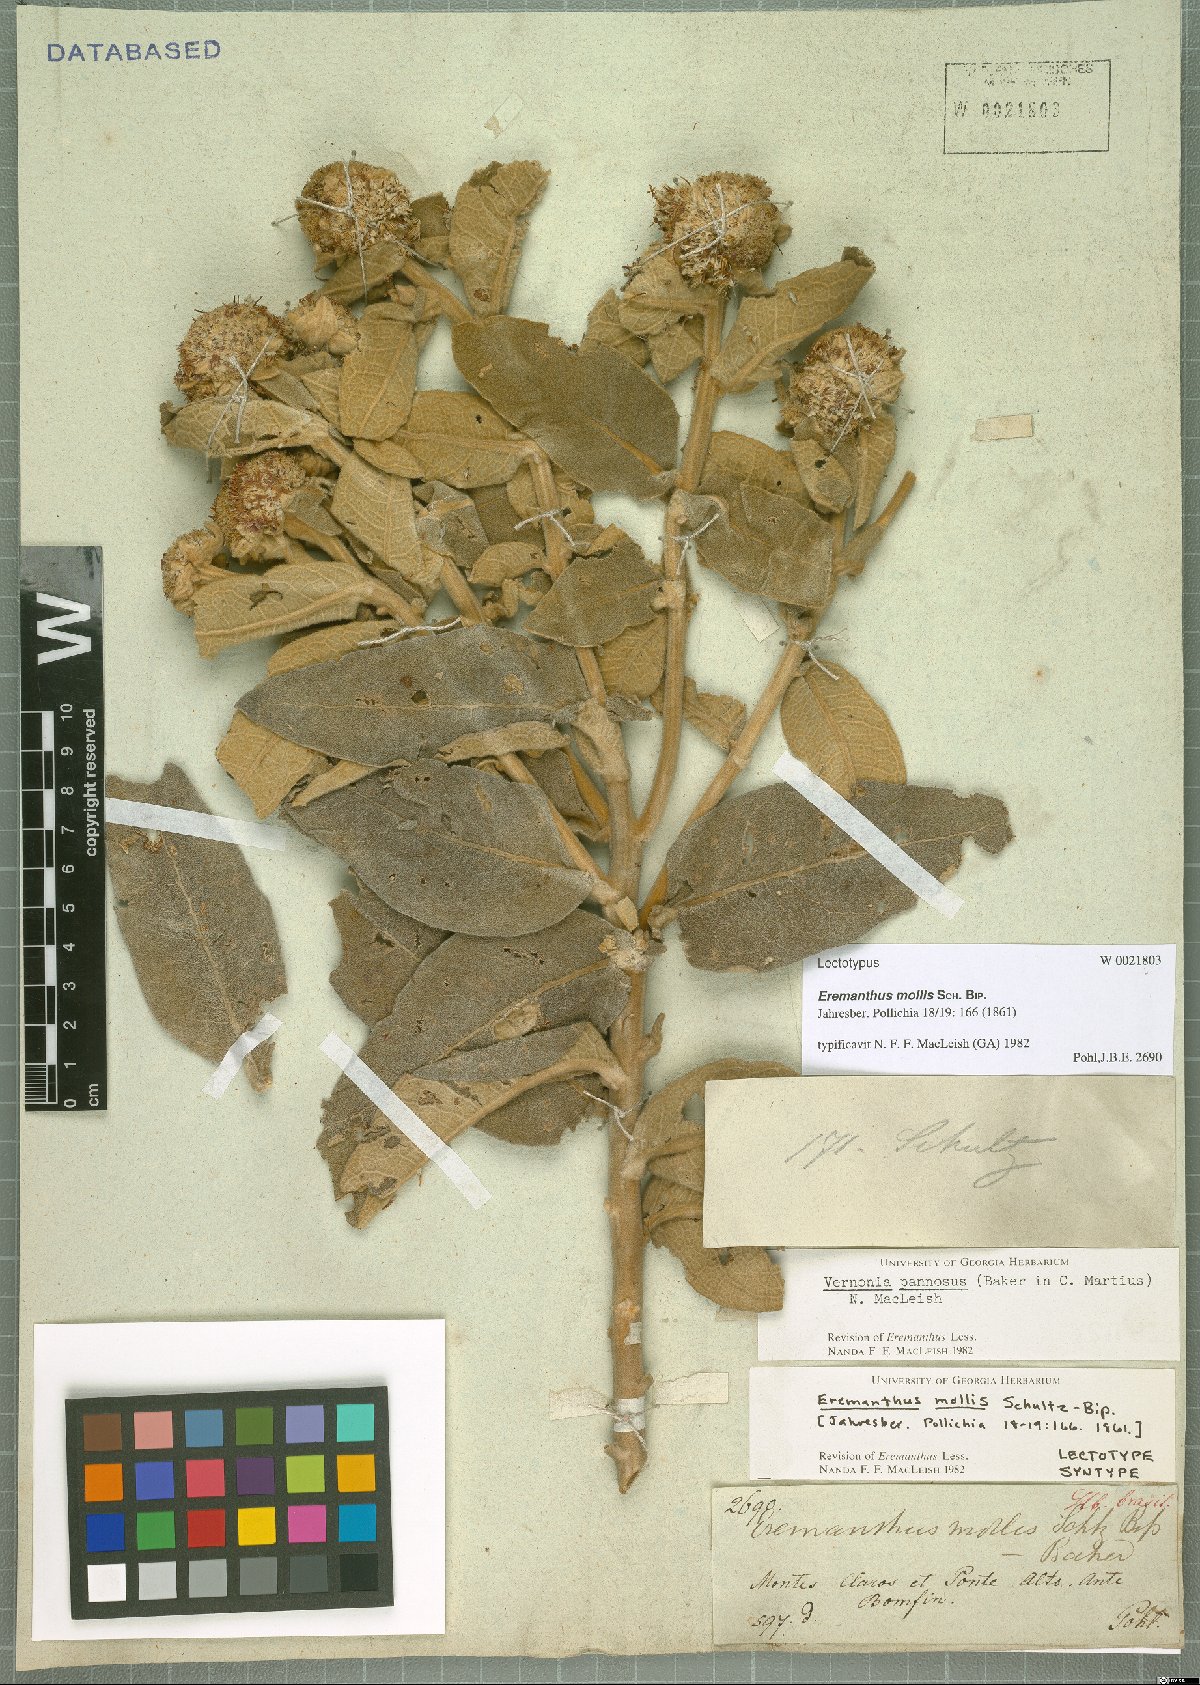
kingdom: Plantae
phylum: Tracheophyta
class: Magnoliopsida
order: Asterales
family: Asteraceae
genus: Eremanthus
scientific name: Eremanthus mollis
